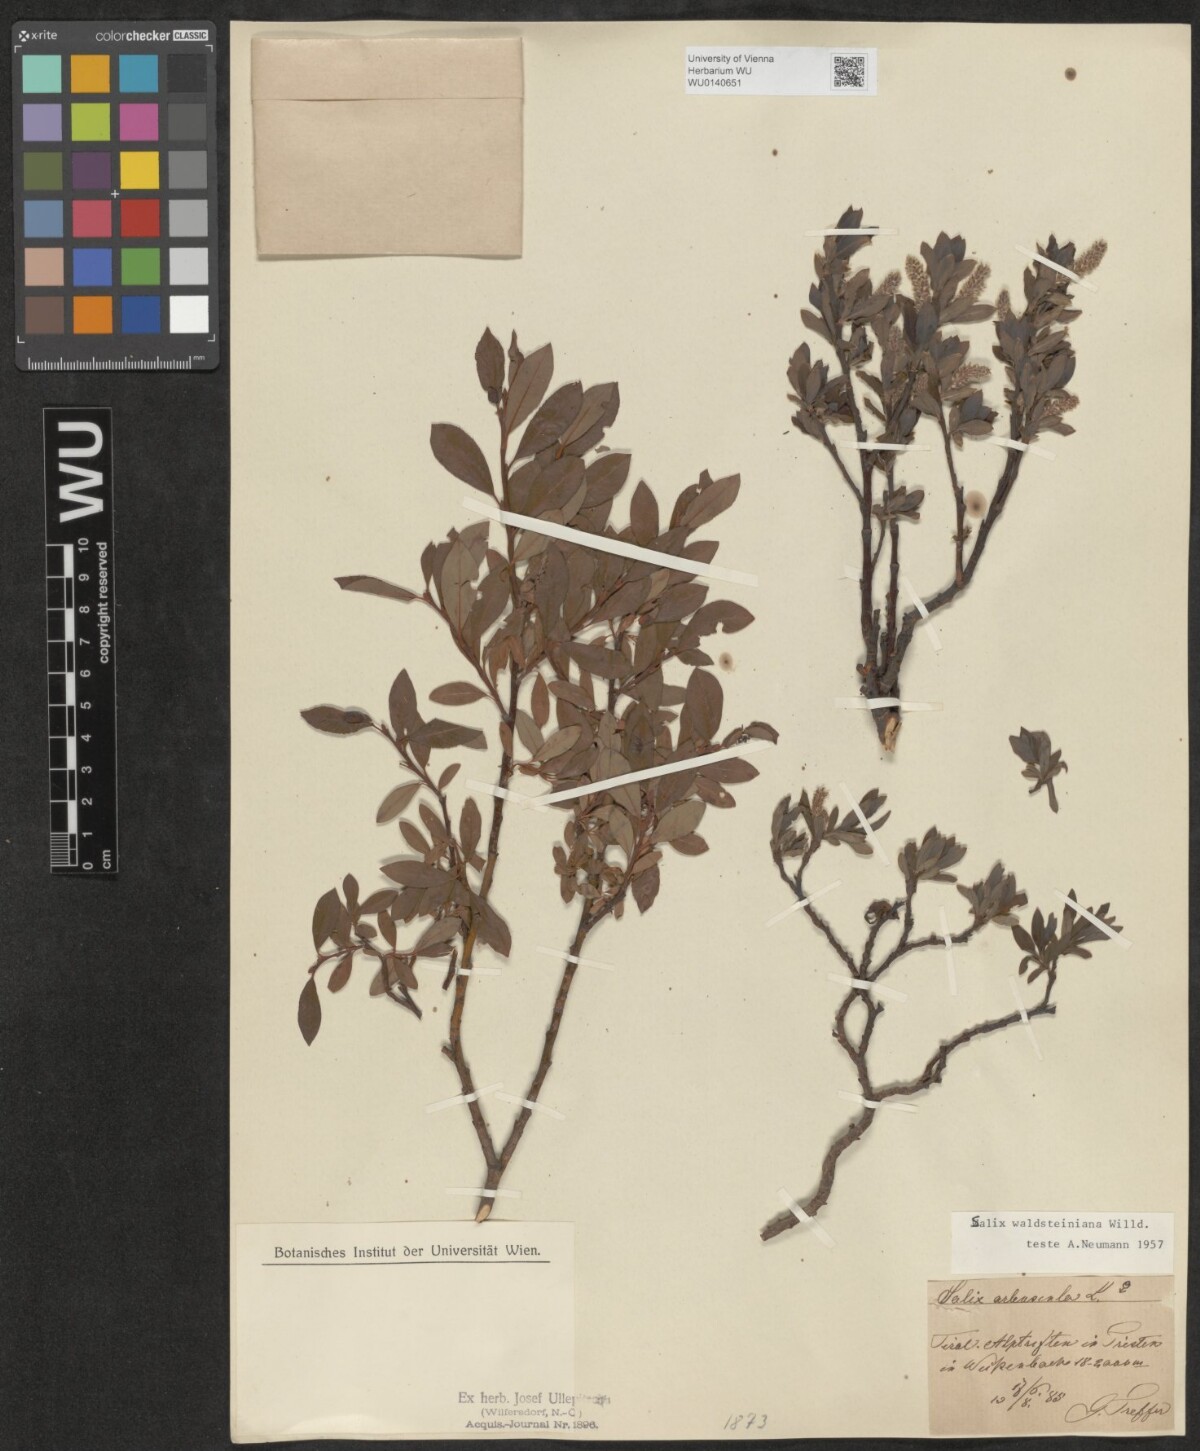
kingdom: Plantae
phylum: Tracheophyta
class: Magnoliopsida
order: Malpighiales
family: Salicaceae
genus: Salix
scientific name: Salix waldsteiniana
